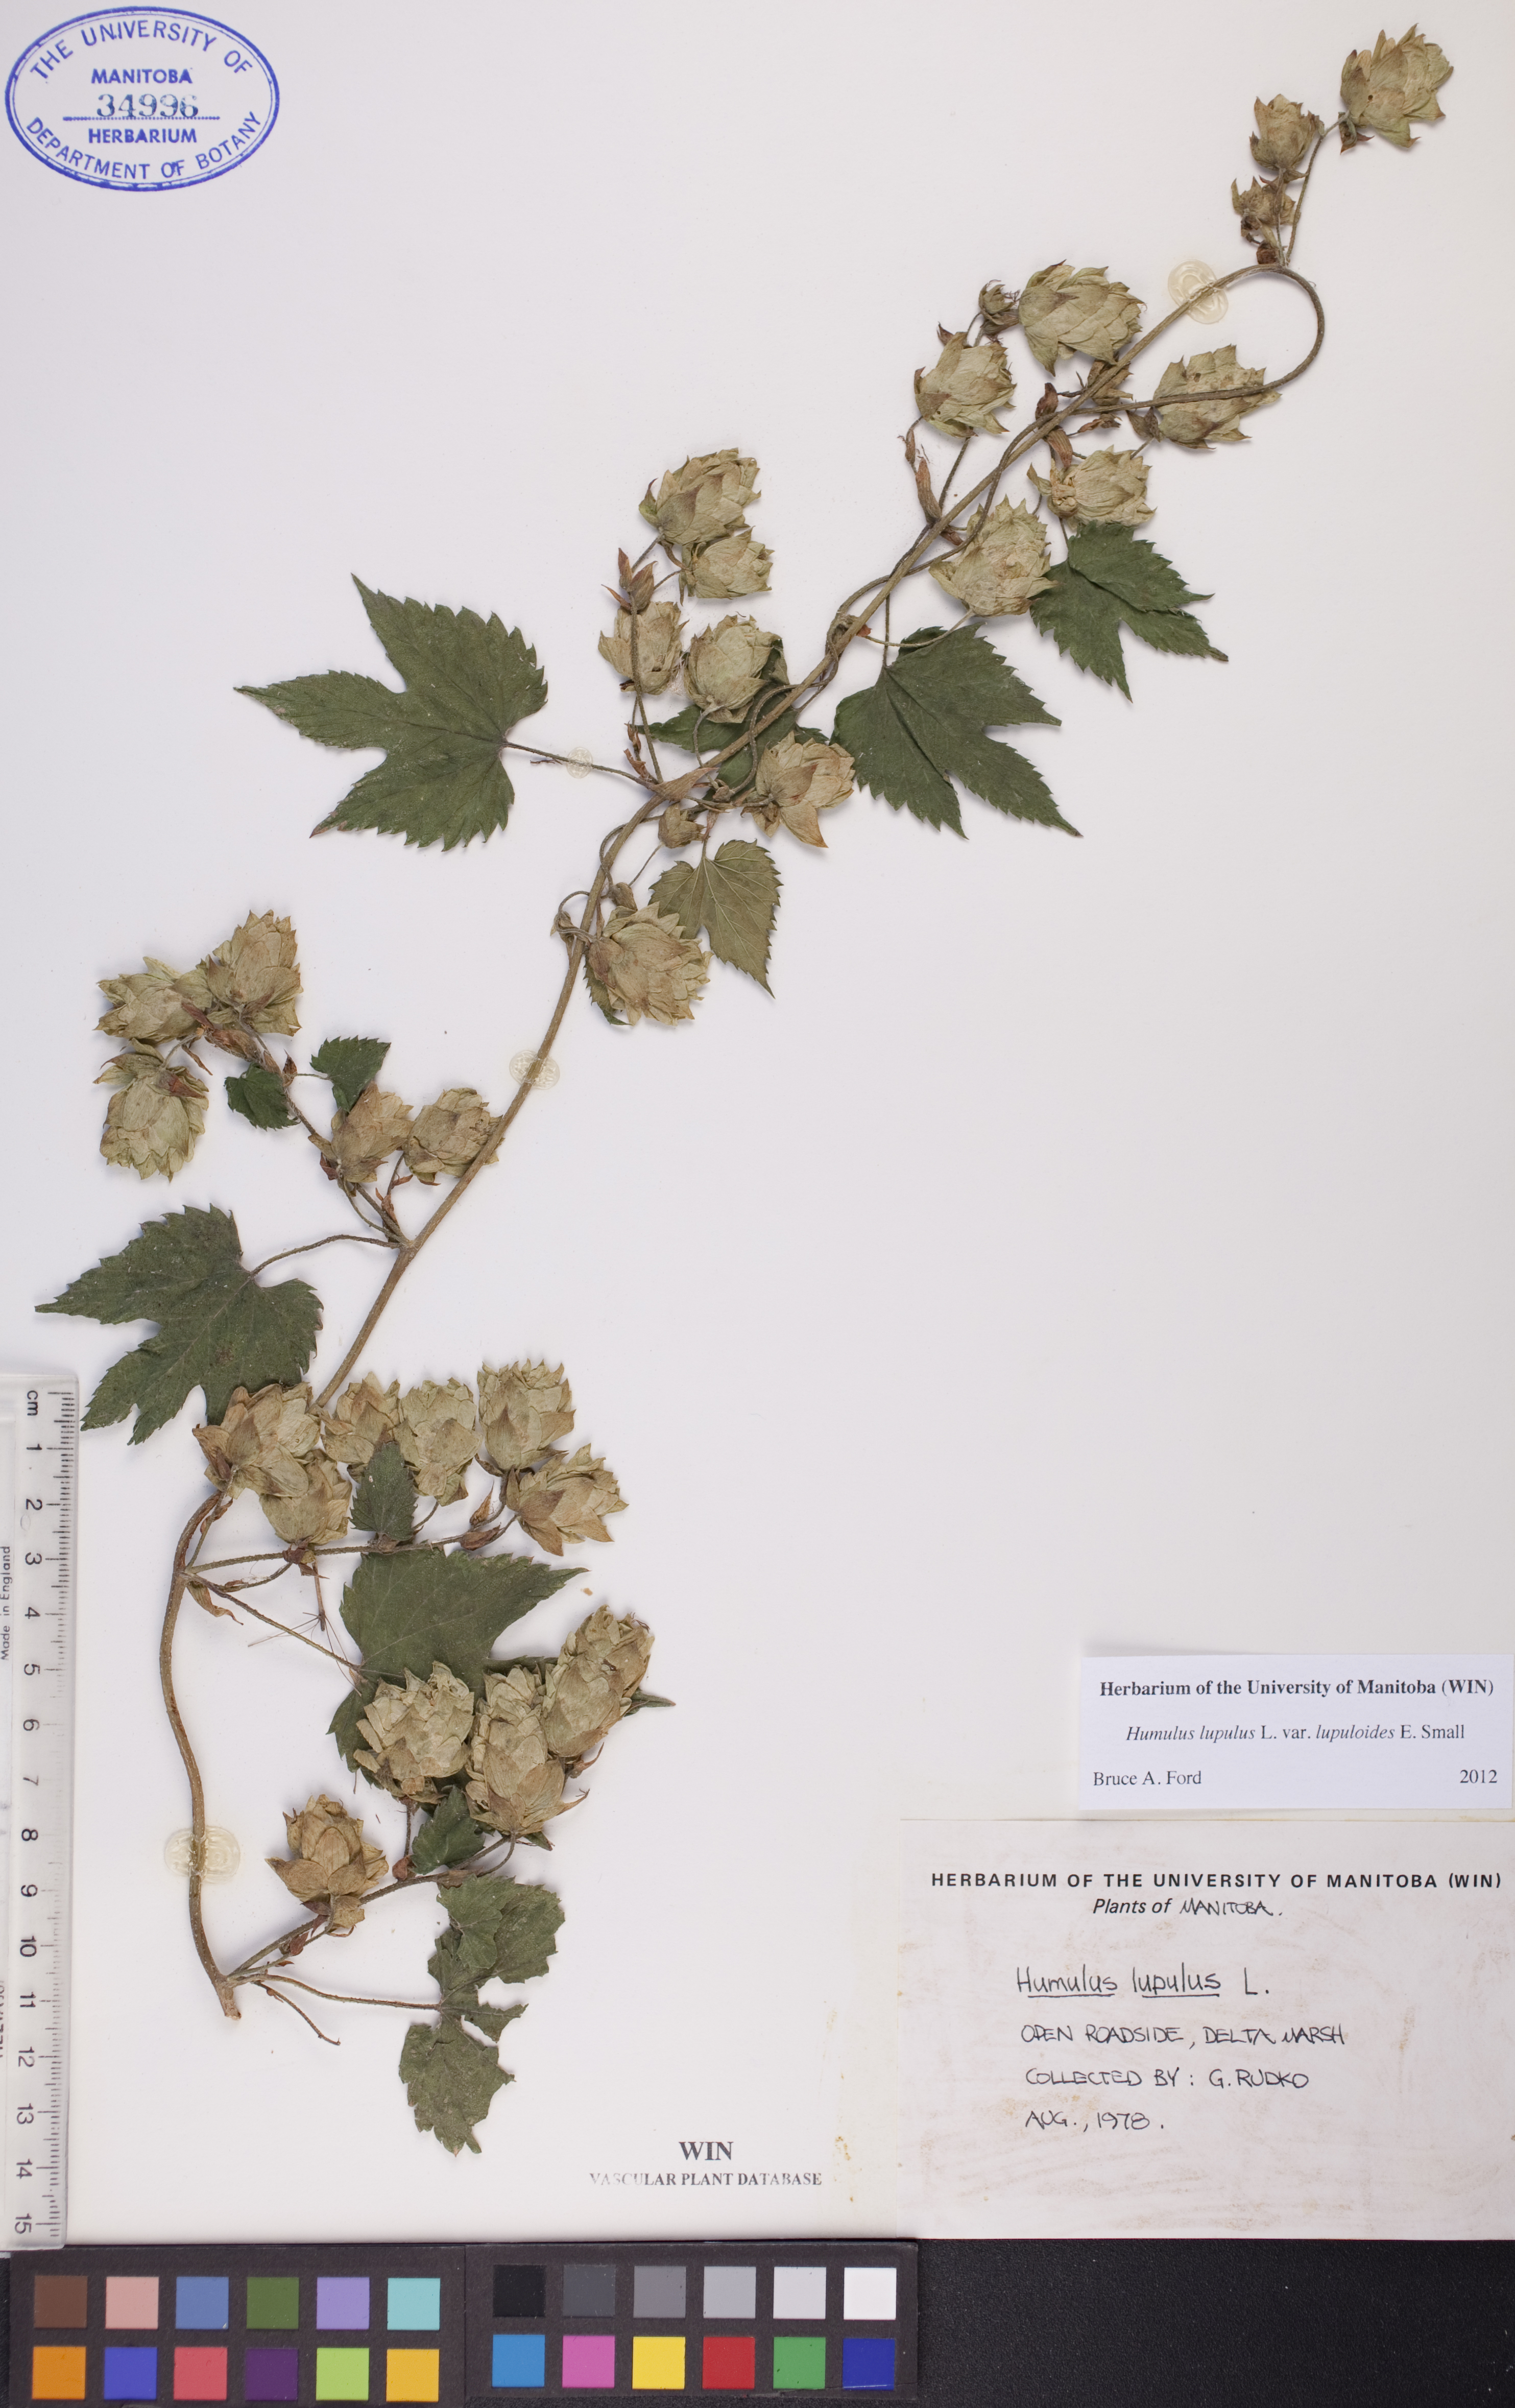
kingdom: Plantae
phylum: Tracheophyta
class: Magnoliopsida
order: Rosales
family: Cannabaceae
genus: Humulus
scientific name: Humulus americanus
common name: American hops
